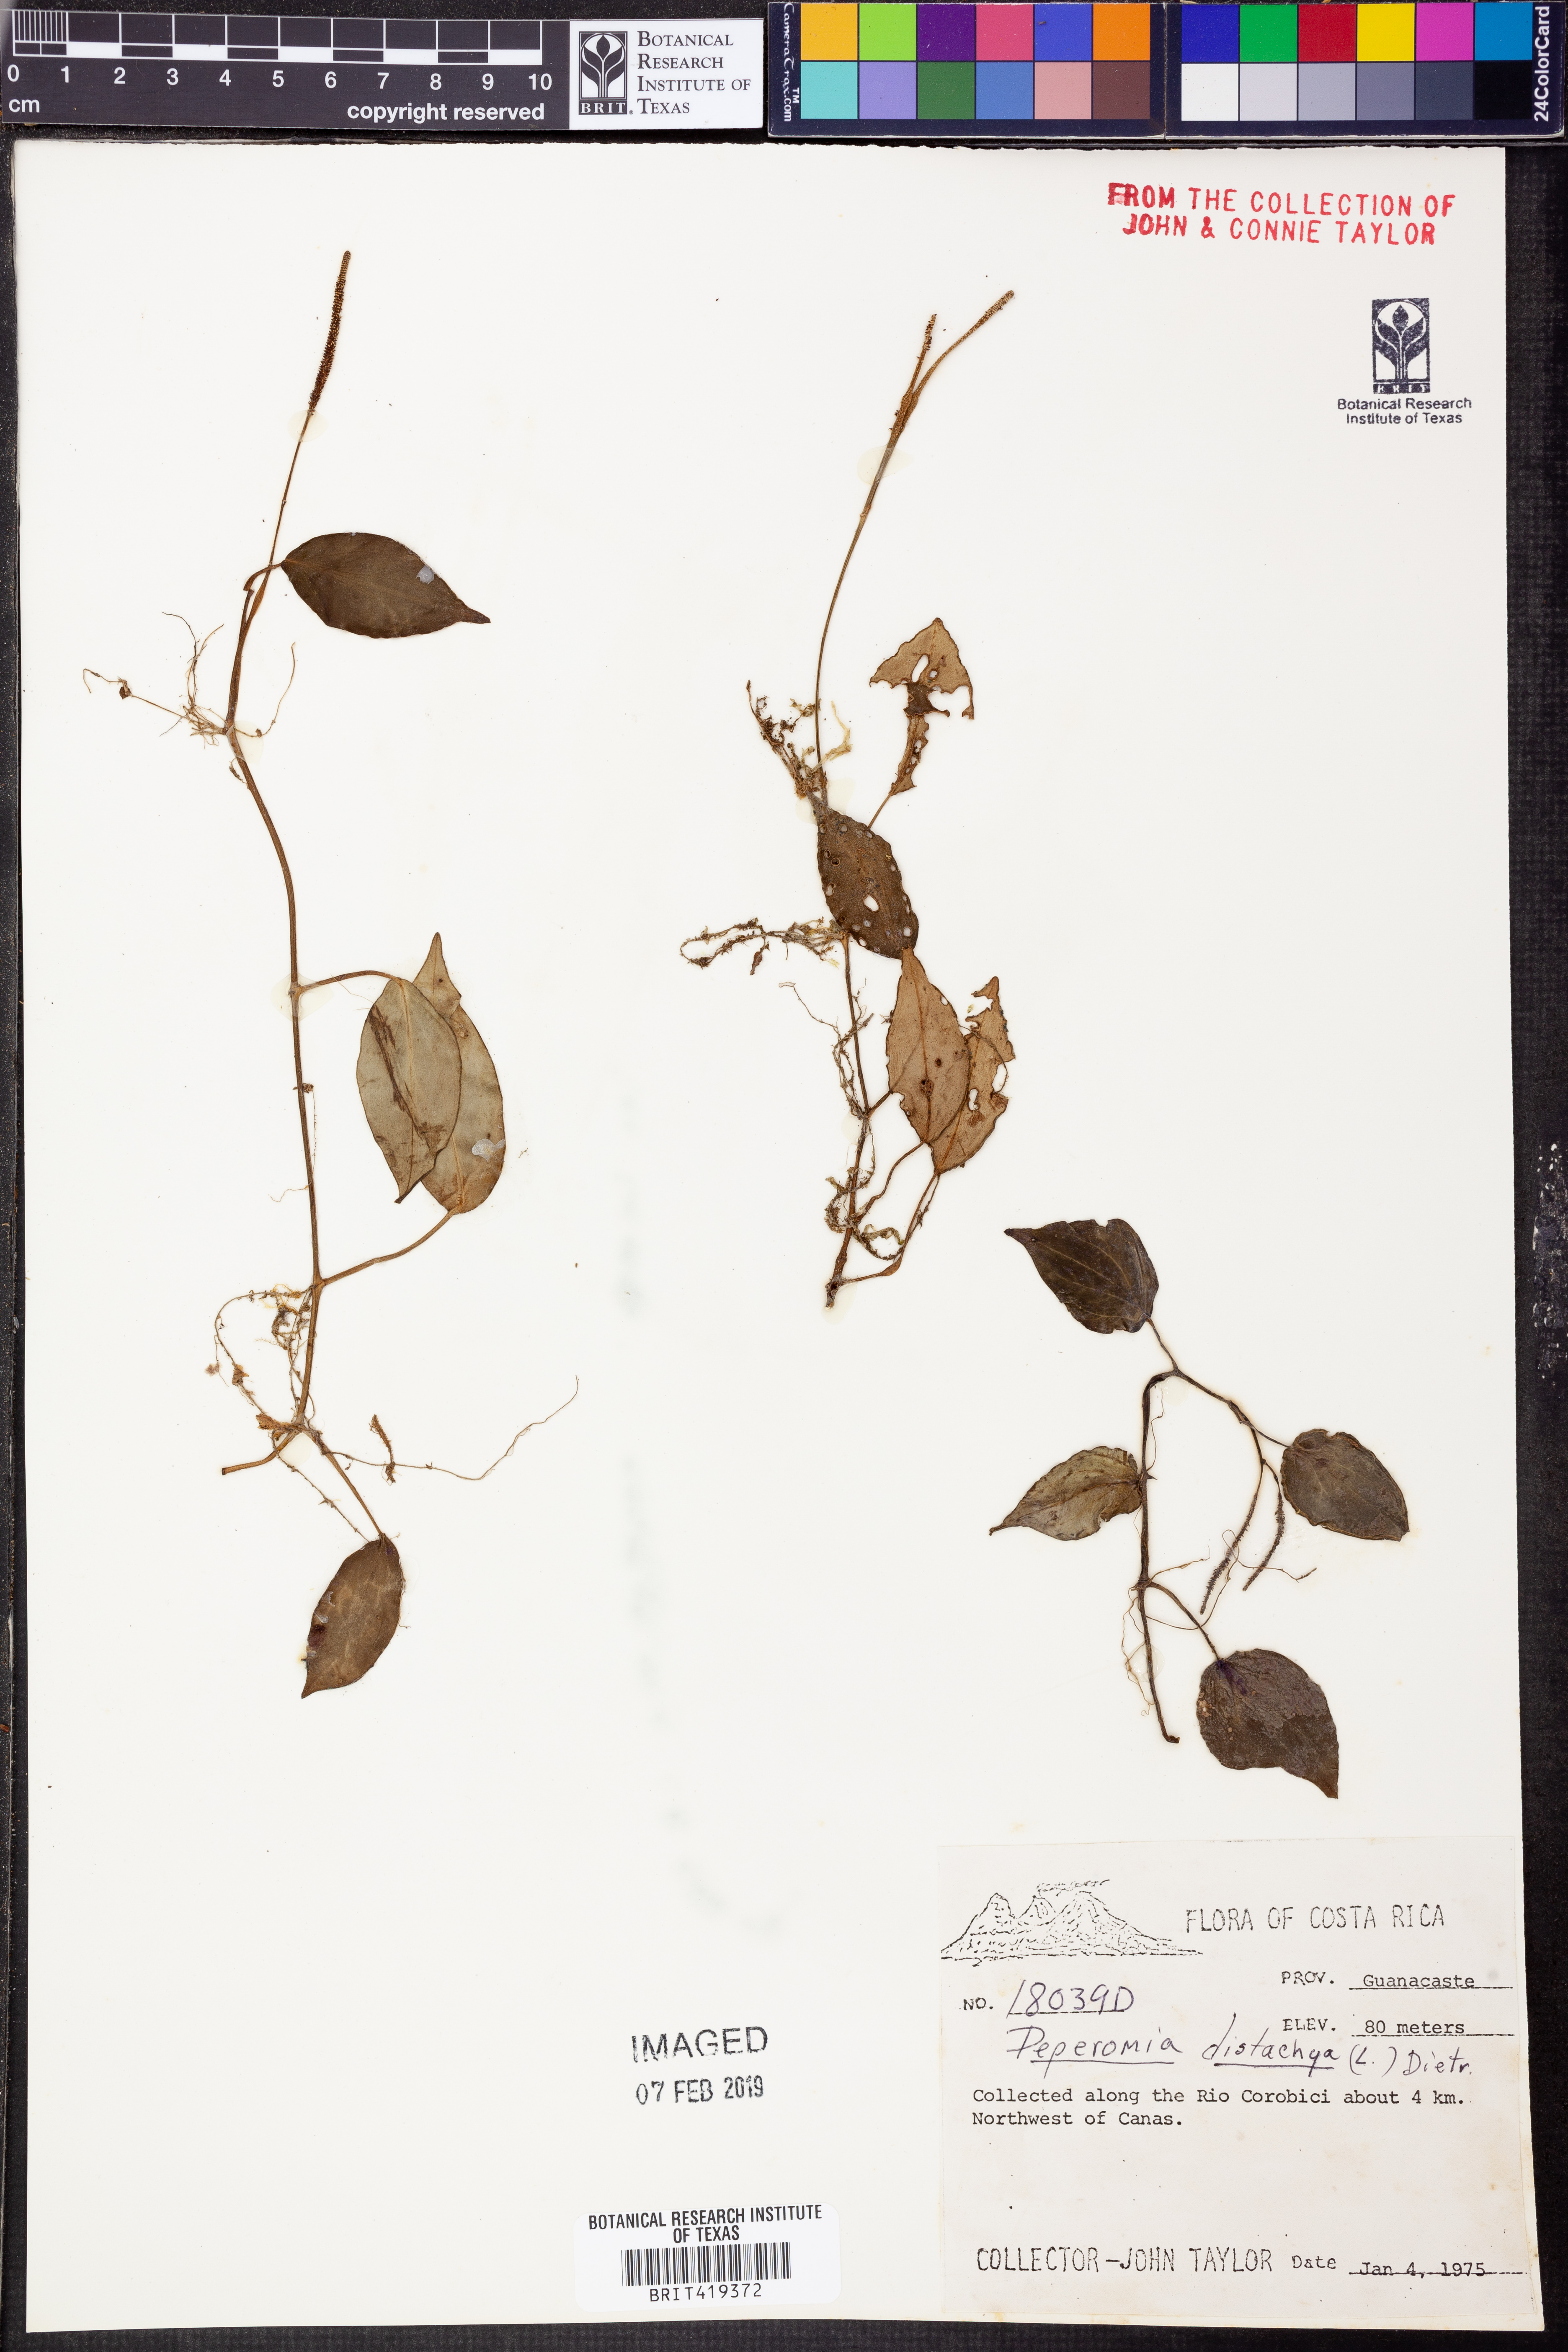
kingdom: Plantae
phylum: Tracheophyta
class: Magnoliopsida
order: Piperales
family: Piperaceae
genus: Peperomia
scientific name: Peperomia distachyos
